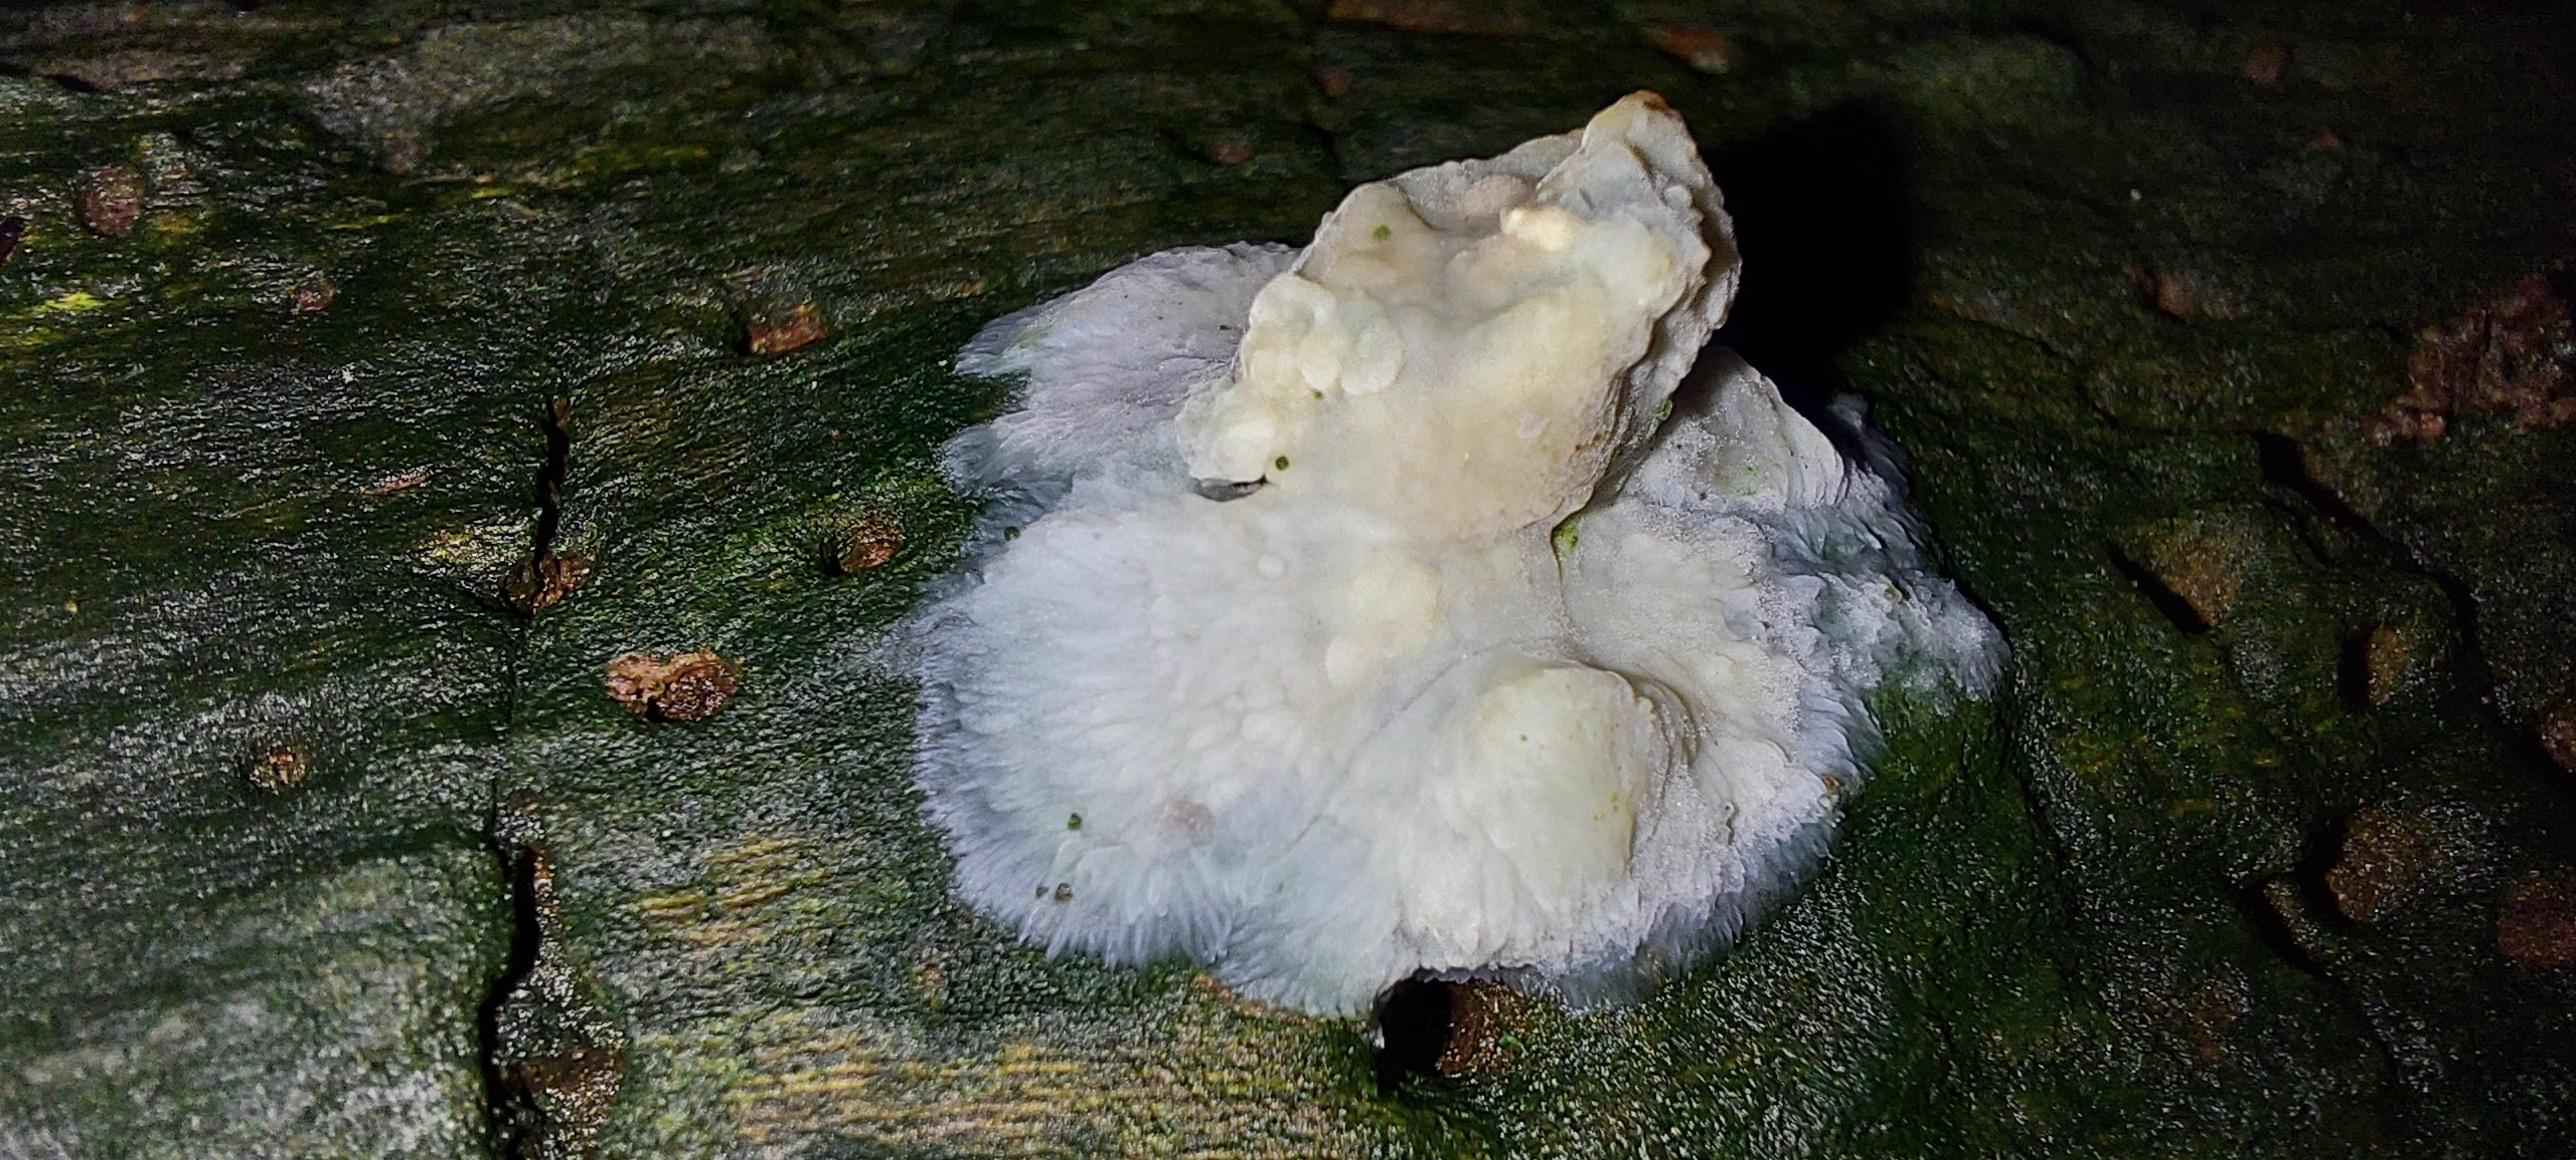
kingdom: Fungi
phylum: Basidiomycota
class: Agaricomycetes
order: Polyporales
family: Meruliaceae
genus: Phlebia
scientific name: Phlebia
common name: åresvamp
